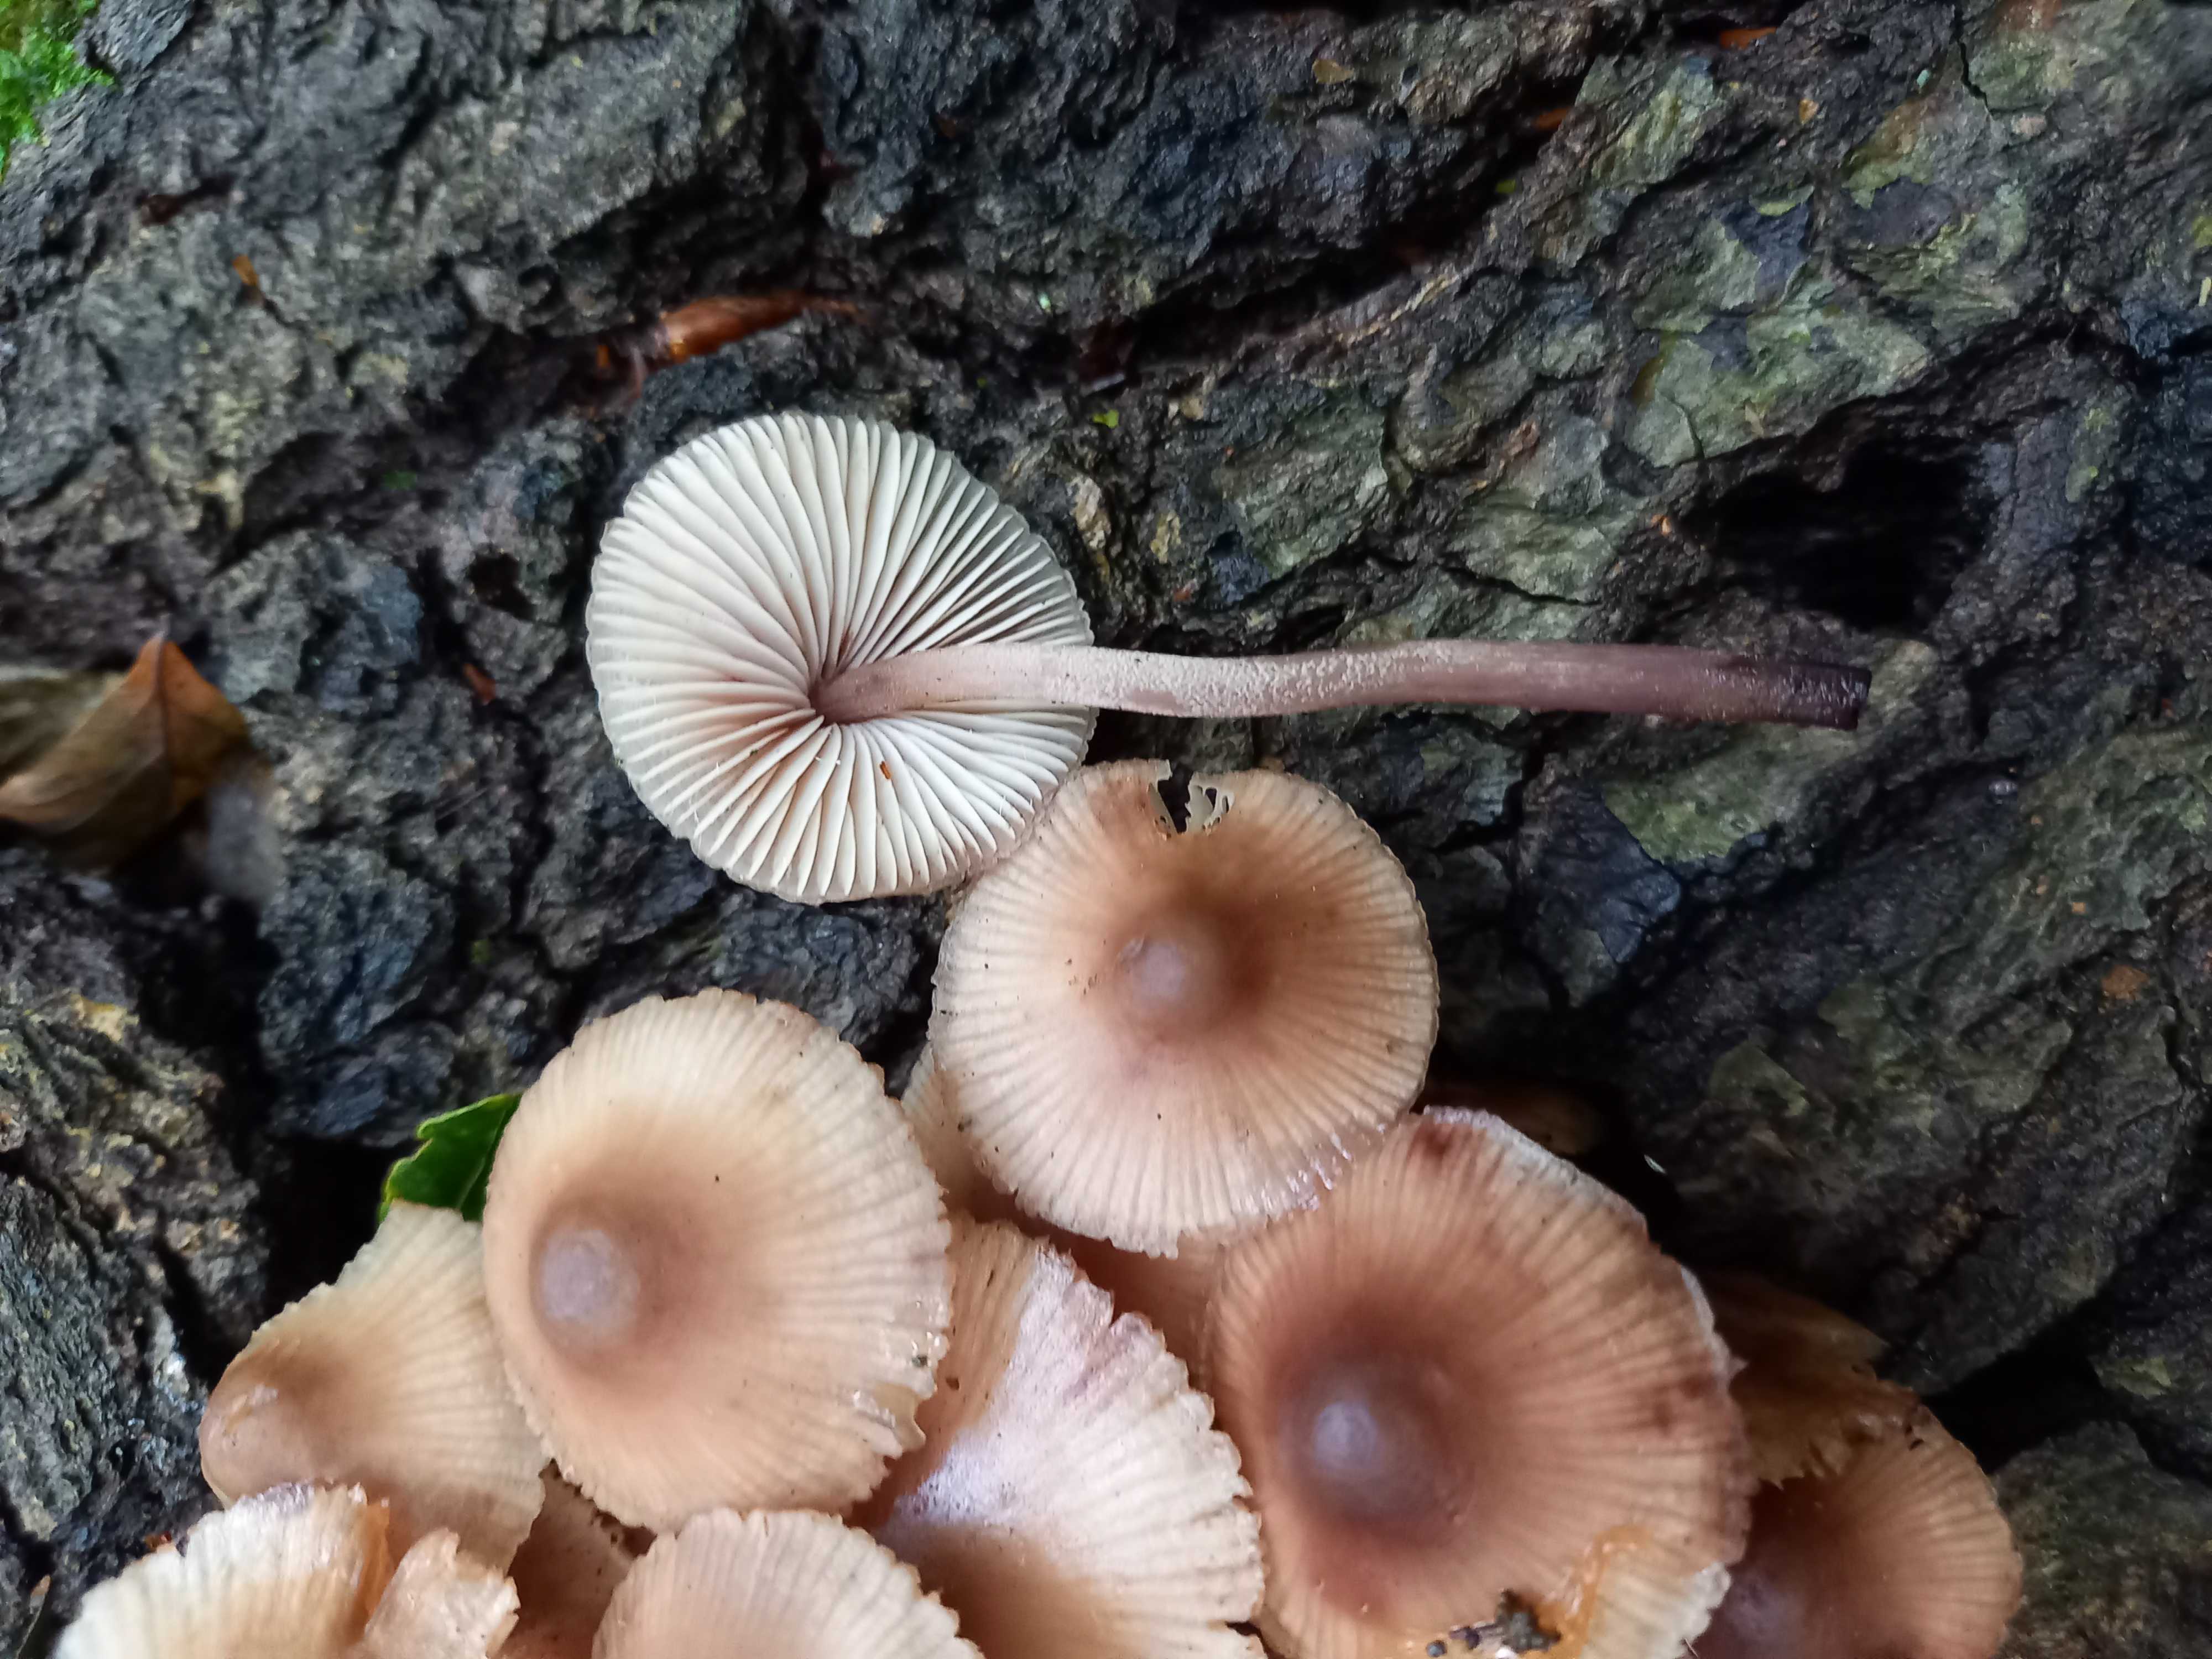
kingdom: Fungi
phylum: Basidiomycota
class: Agaricomycetes
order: Agaricales
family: Mycenaceae
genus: Mycena
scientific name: Mycena haematopus
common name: blødende huesvamp
